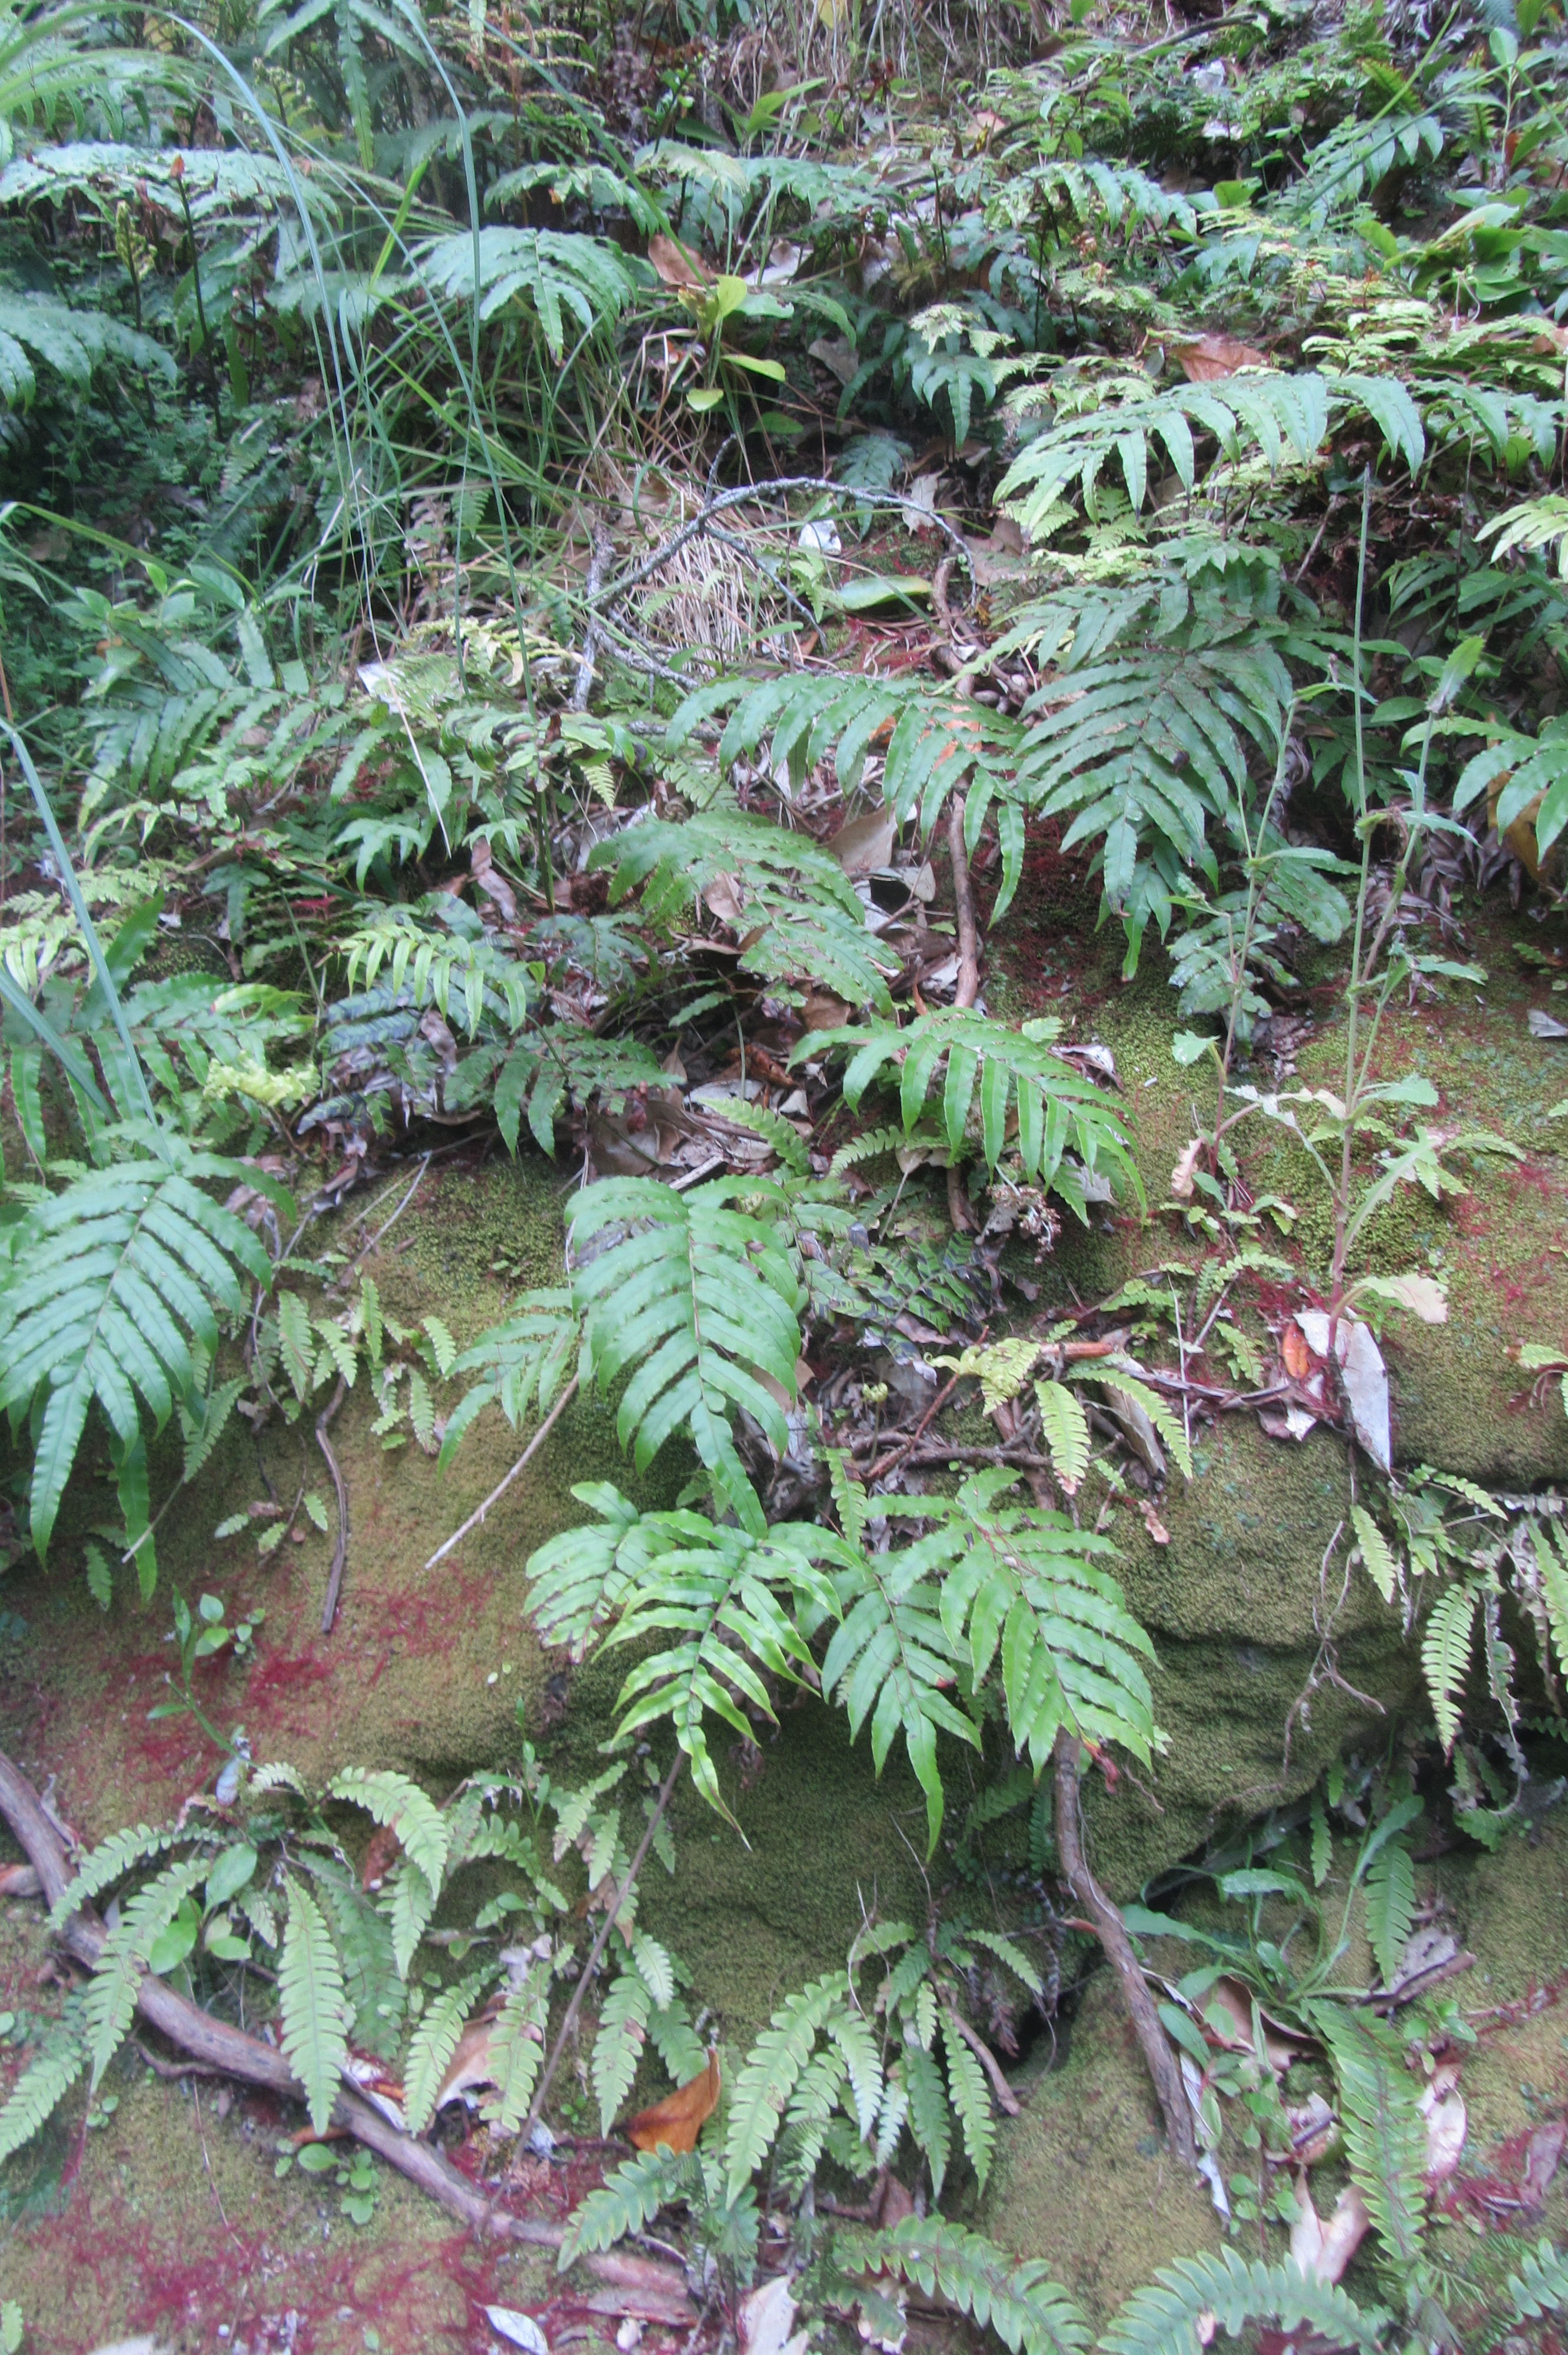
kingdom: Plantae
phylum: Tracheophyta
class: Polypodiopsida
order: Polypodiales
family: Blechnaceae
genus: Parablechnum
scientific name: Parablechnum triangularifolium
